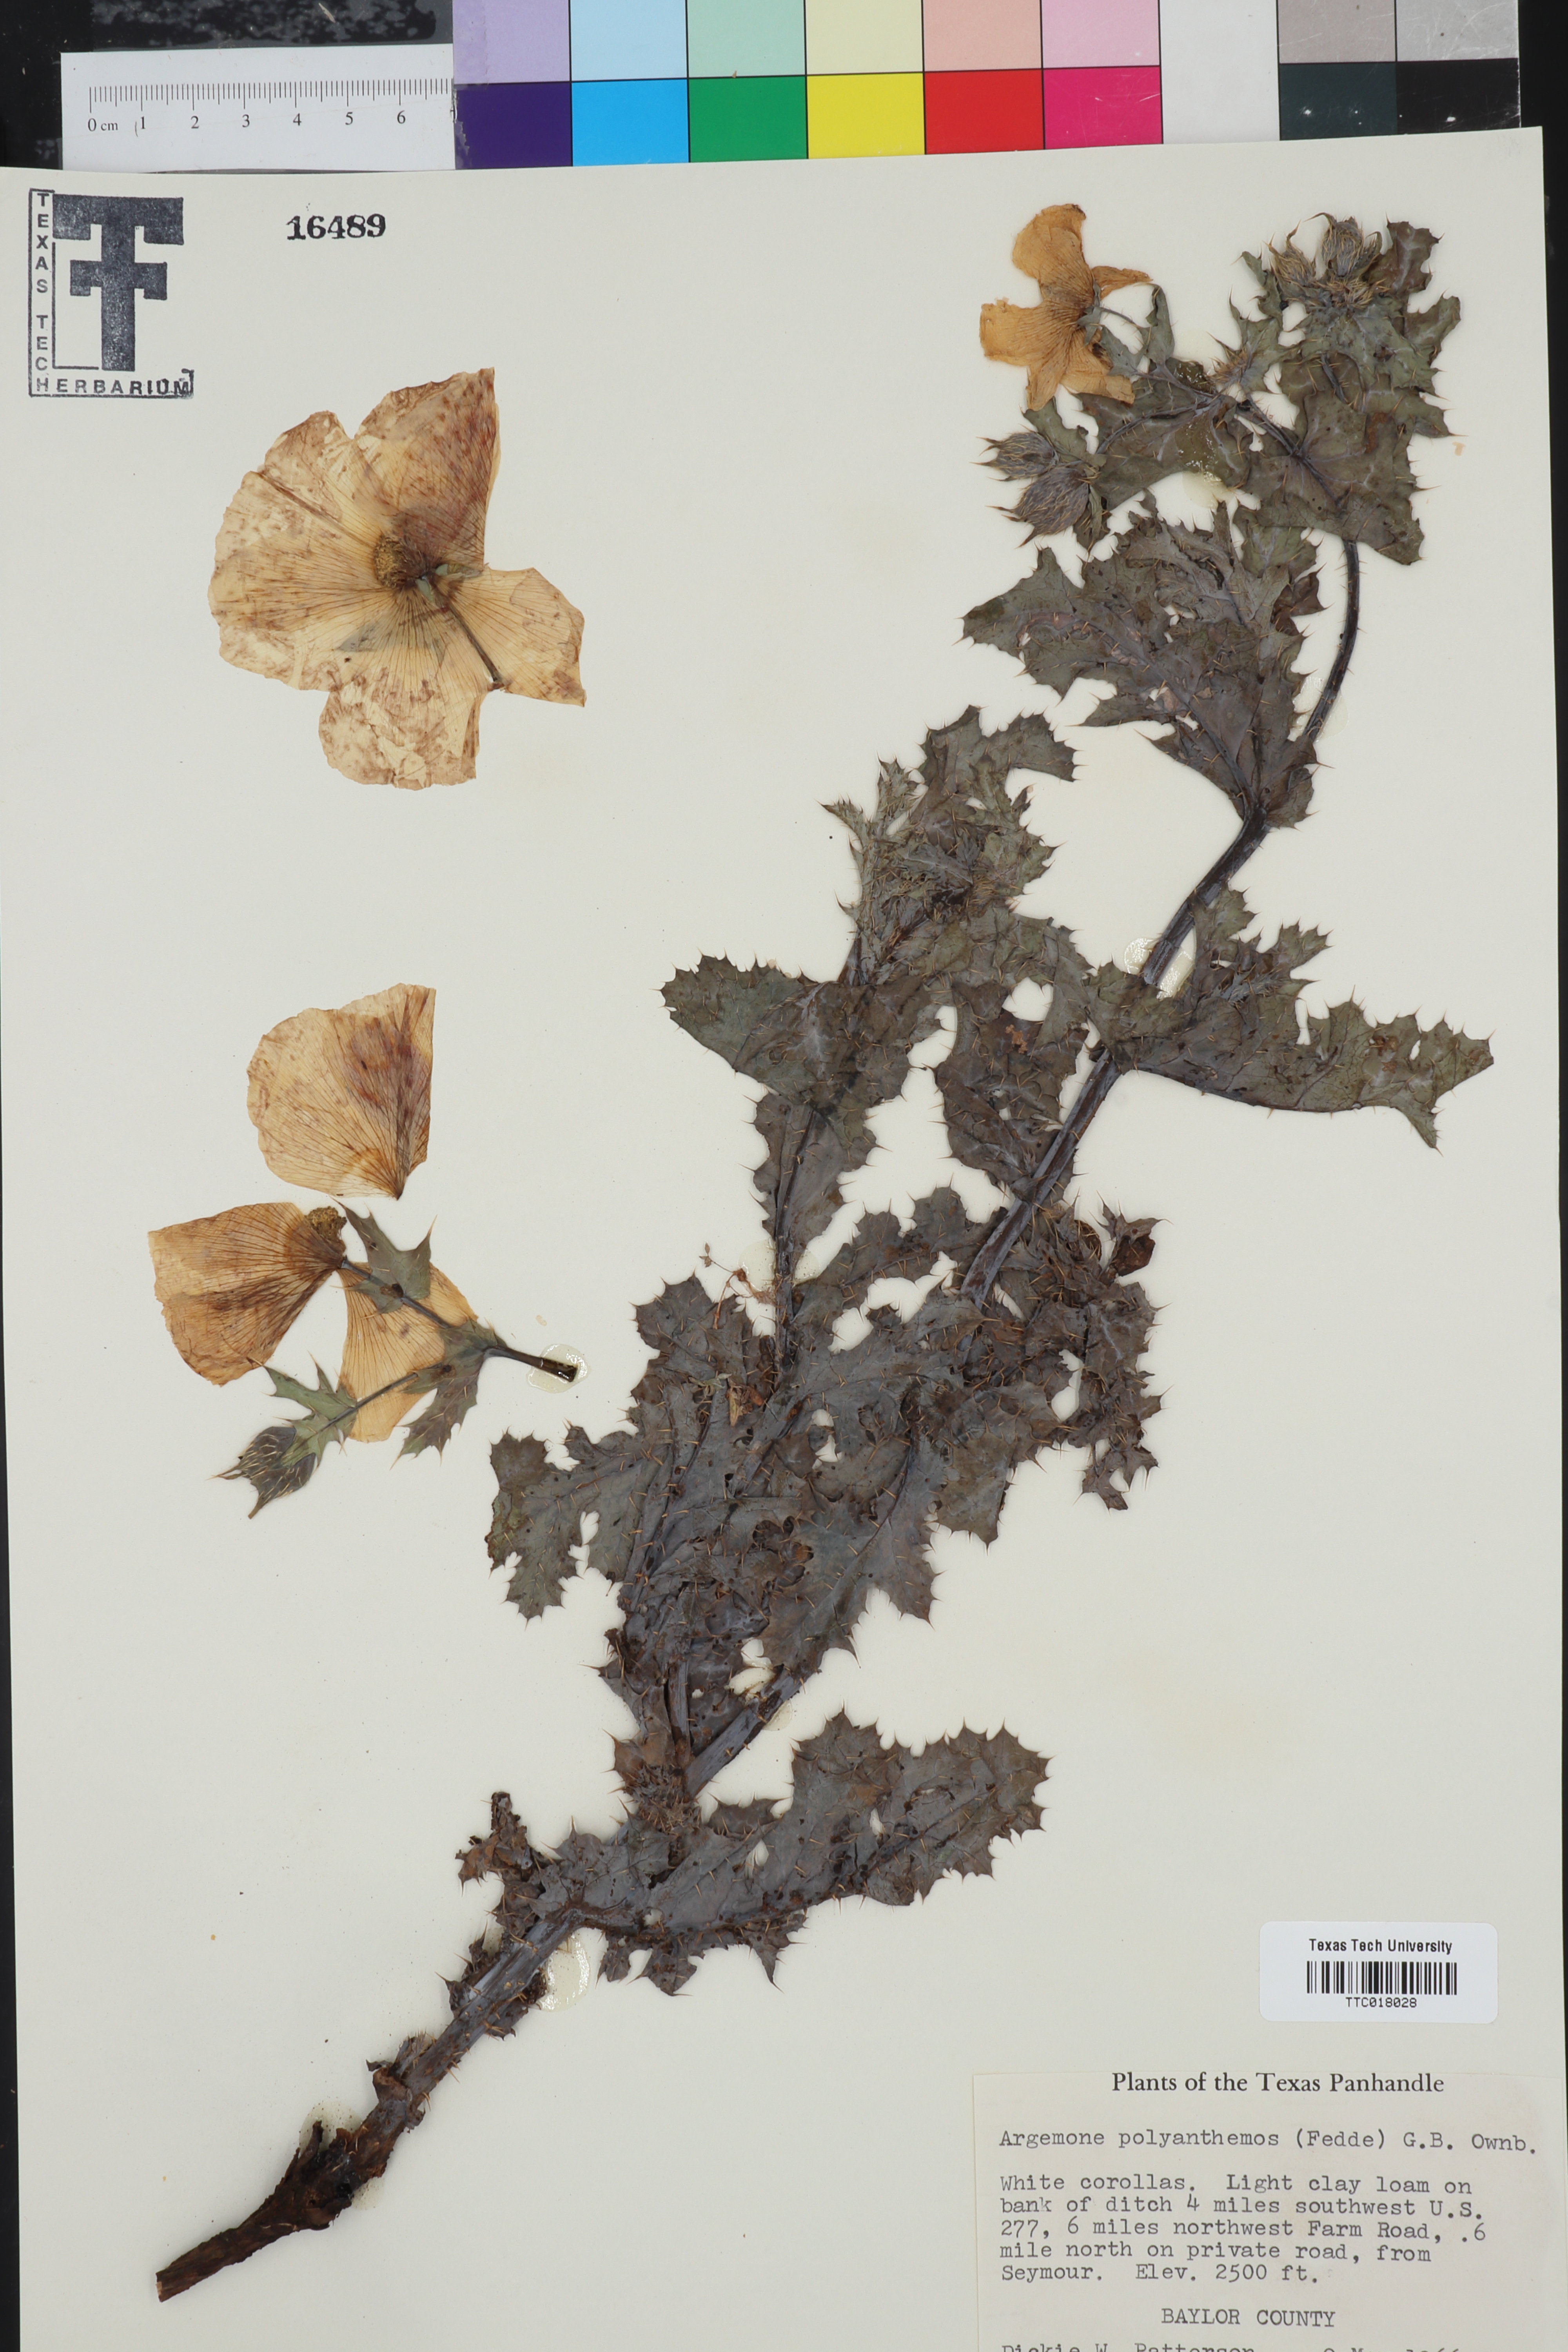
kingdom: Plantae
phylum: Tracheophyta
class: Magnoliopsida
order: Ranunculales
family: Papaveraceae
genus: Argemone
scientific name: Argemone polyanthemos
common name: Plains prickly-poppy
